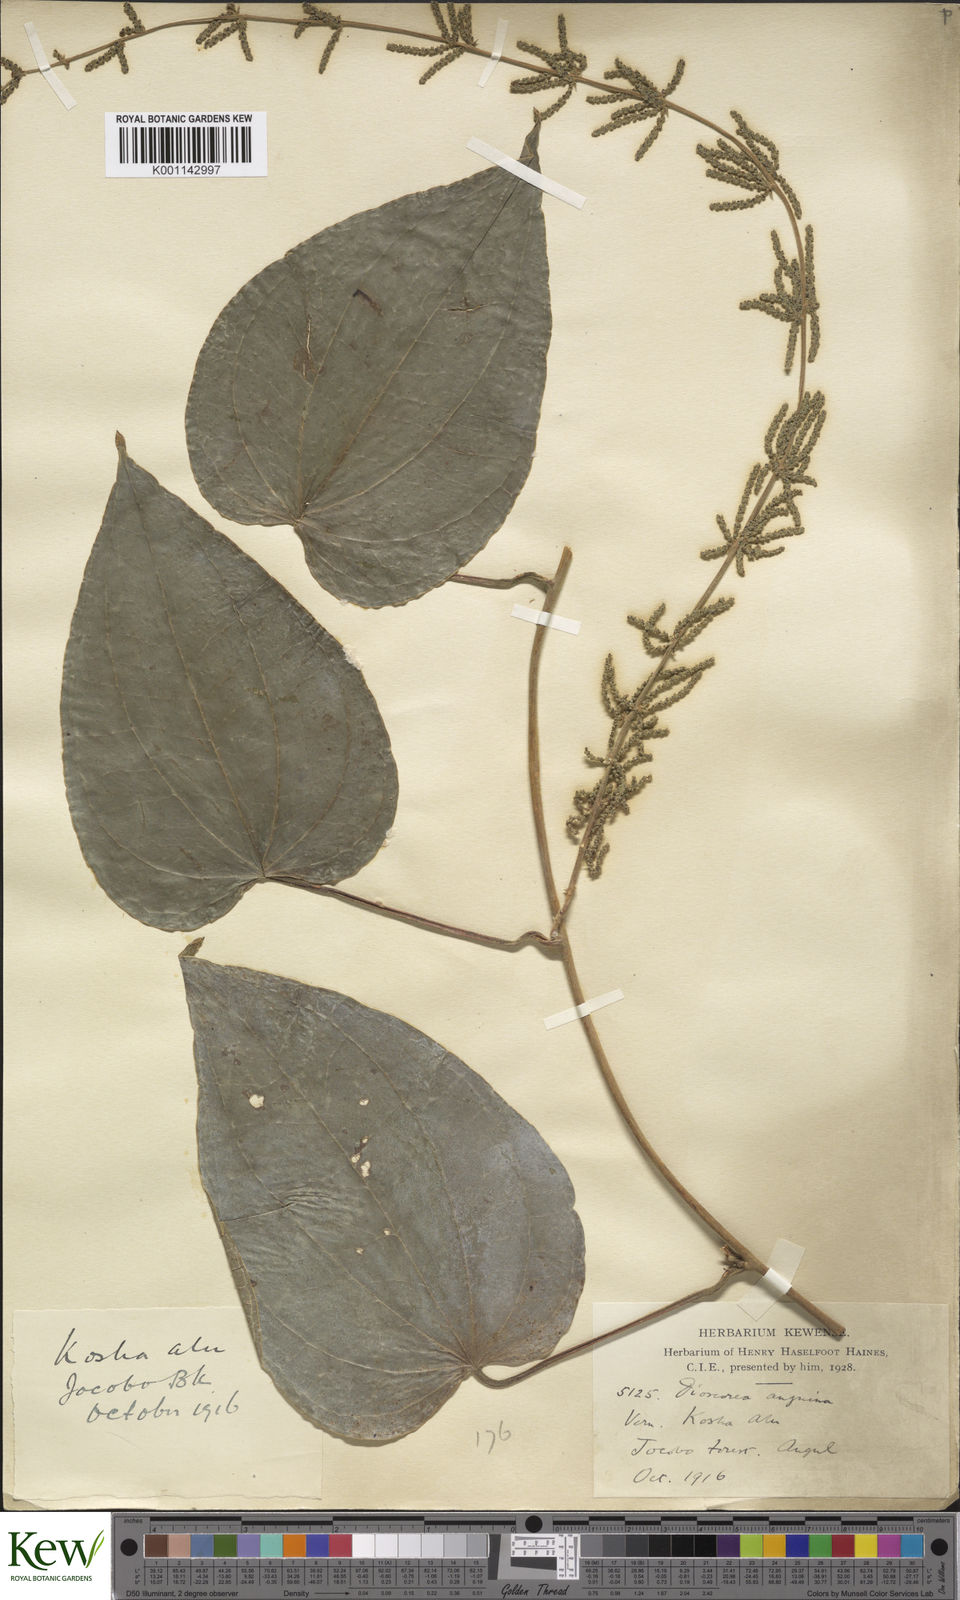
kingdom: Plantae
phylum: Tracheophyta
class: Liliopsida
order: Dioscoreales
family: Dioscoreaceae
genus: Dioscorea
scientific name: Dioscorea pubera
